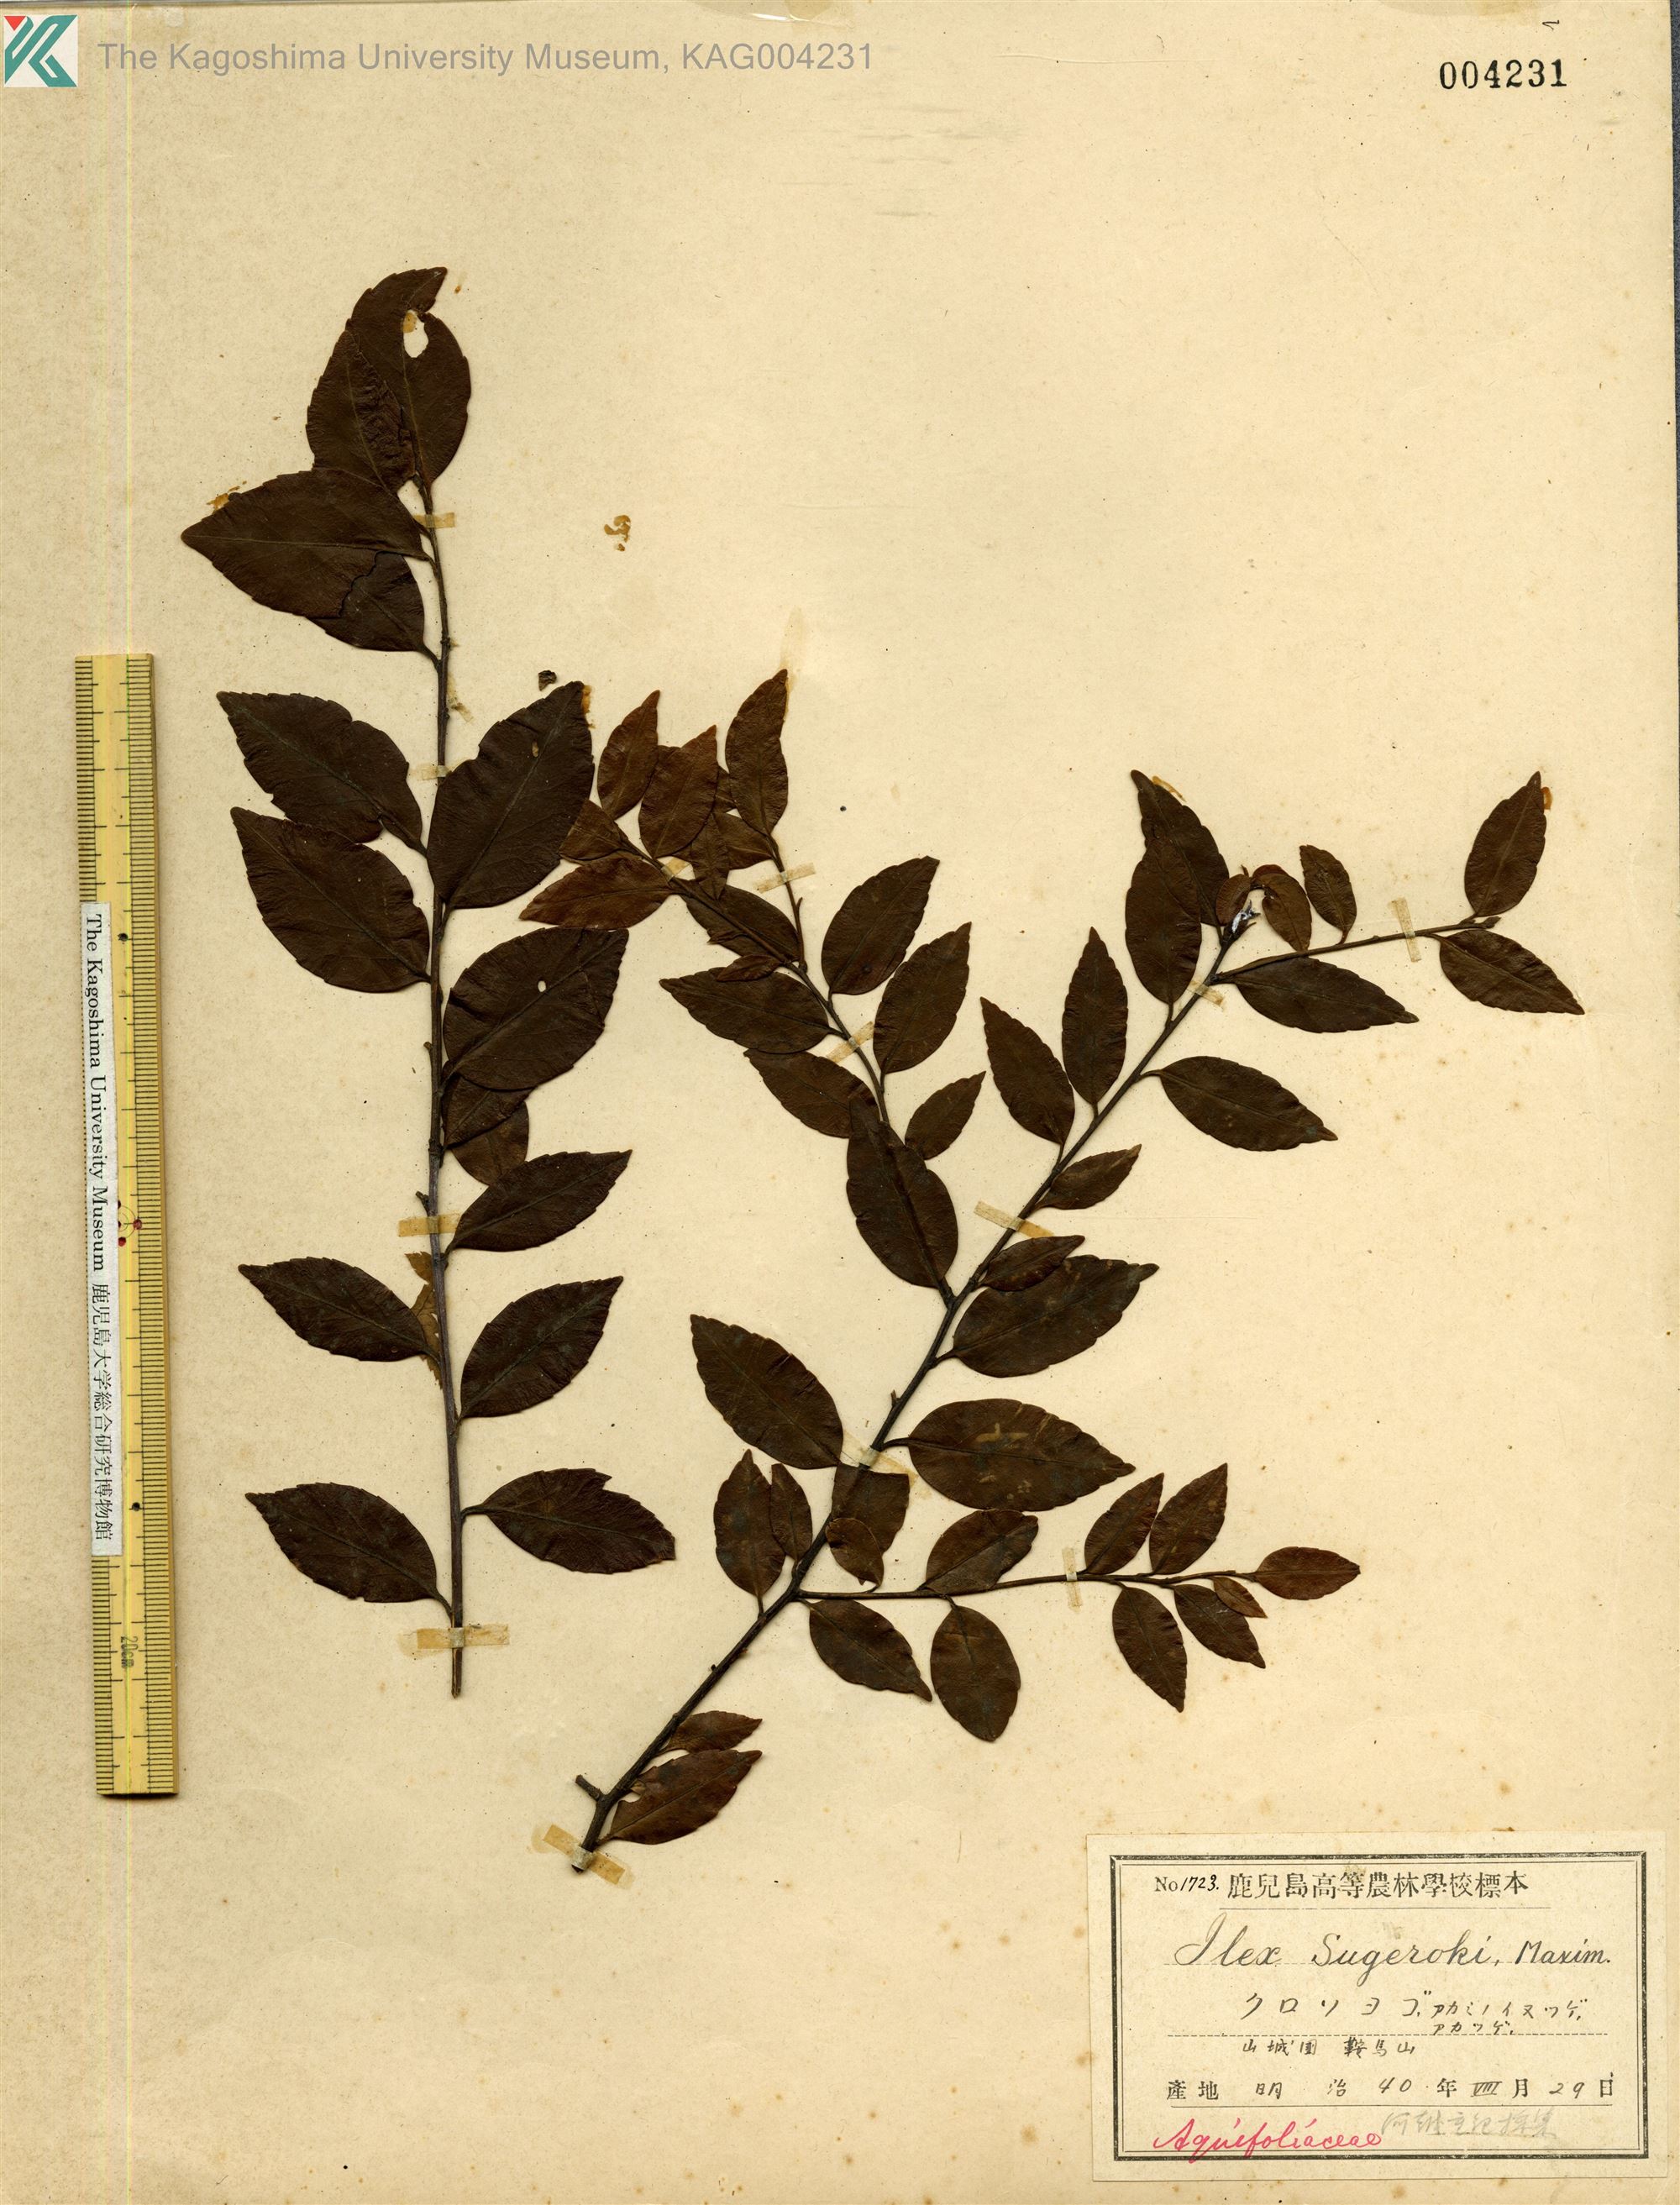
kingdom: Plantae
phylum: Tracheophyta
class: Magnoliopsida
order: Aquifoliales
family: Aquifoliaceae
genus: Ilex
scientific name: Ilex sugerokii
